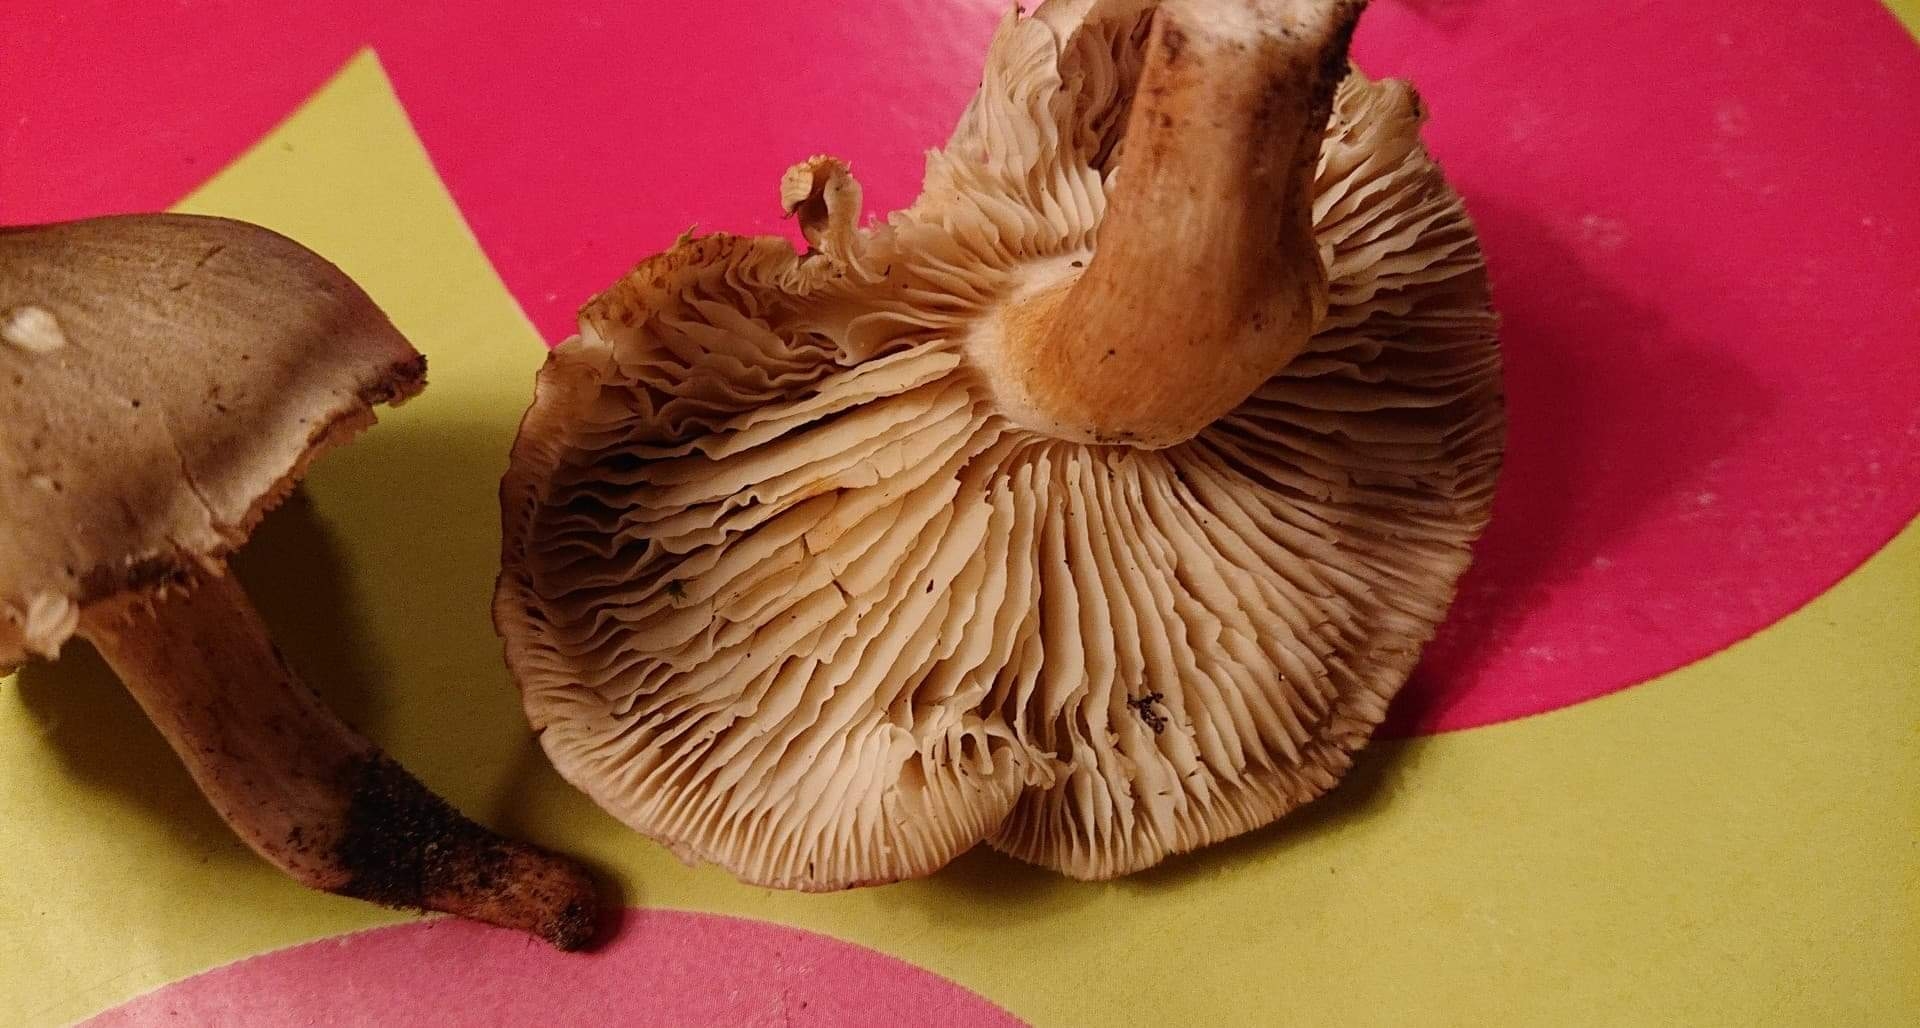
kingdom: Fungi
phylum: Basidiomycota
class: Agaricomycetes
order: Agaricales
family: Tricholomataceae
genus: Tricholoma
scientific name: Tricholoma sudum
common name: tør ridderhat
